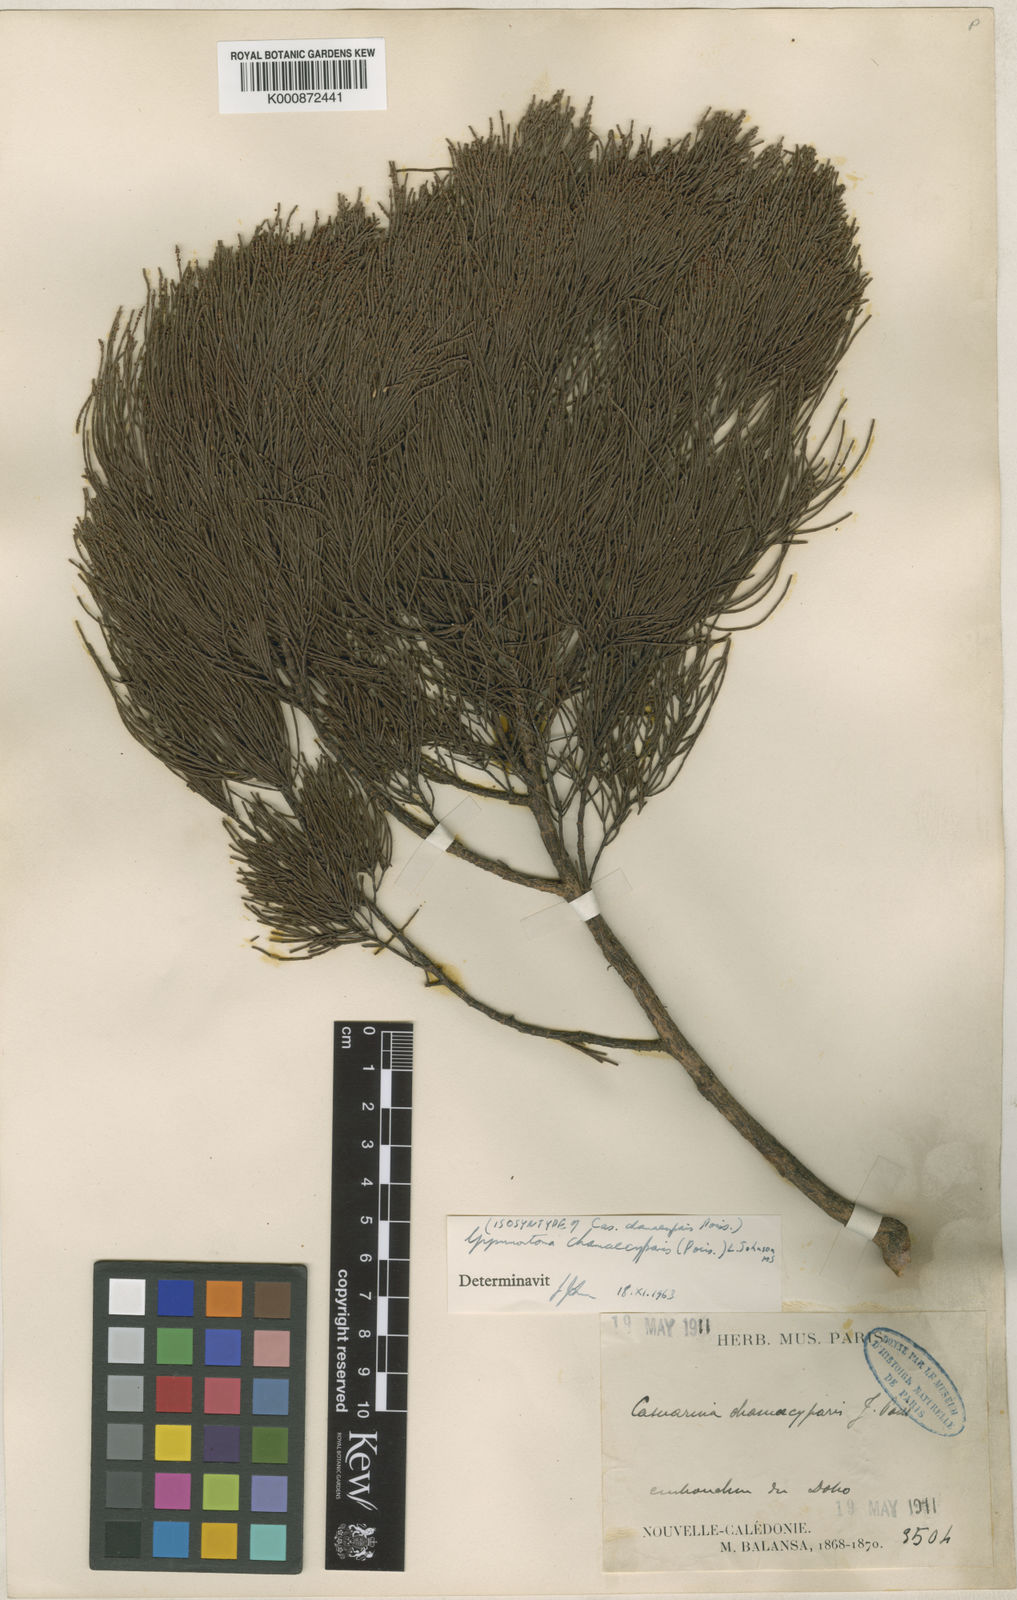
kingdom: Plantae
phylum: Tracheophyta
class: Magnoliopsida
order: Fagales
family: Casuarinaceae
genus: Gymnostoma
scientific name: Gymnostoma chamaecyparis
